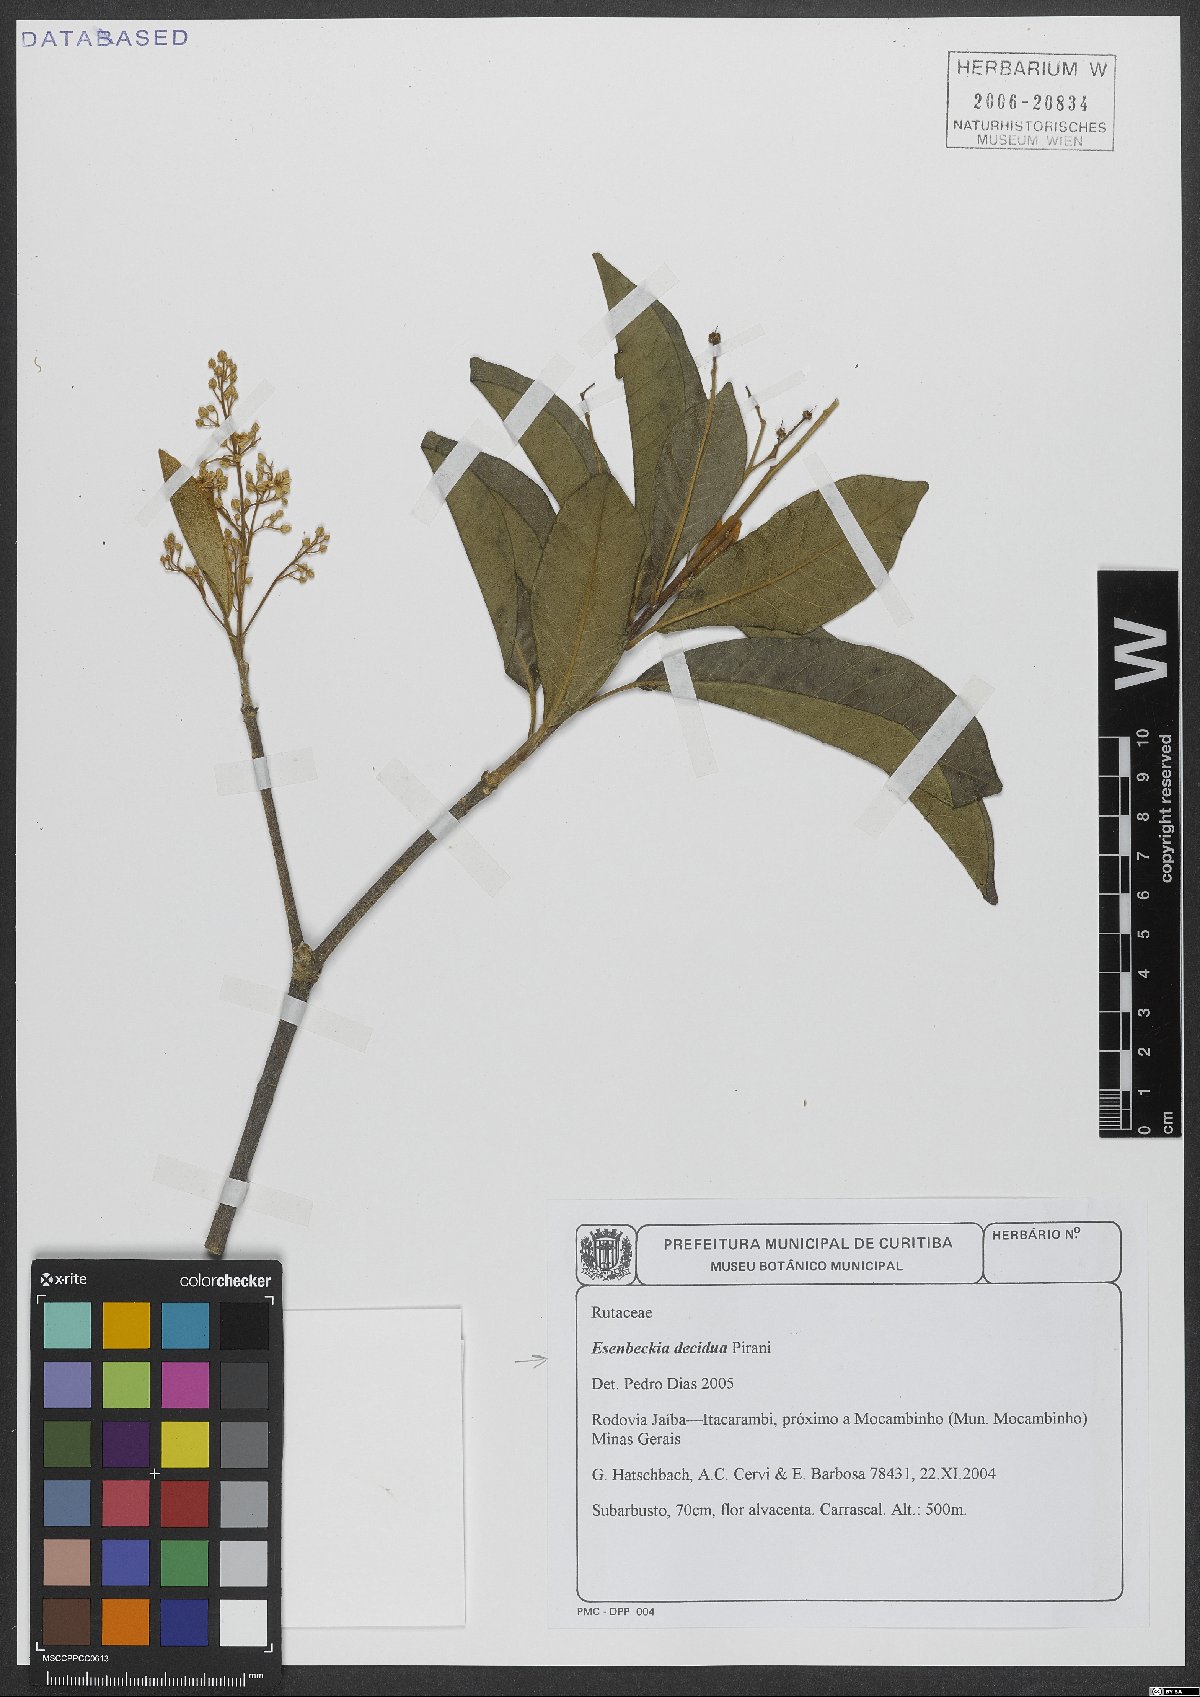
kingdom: Plantae
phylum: Tracheophyta
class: Magnoliopsida
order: Sapindales
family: Rutaceae
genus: Esenbeckia
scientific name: Esenbeckia decidua
